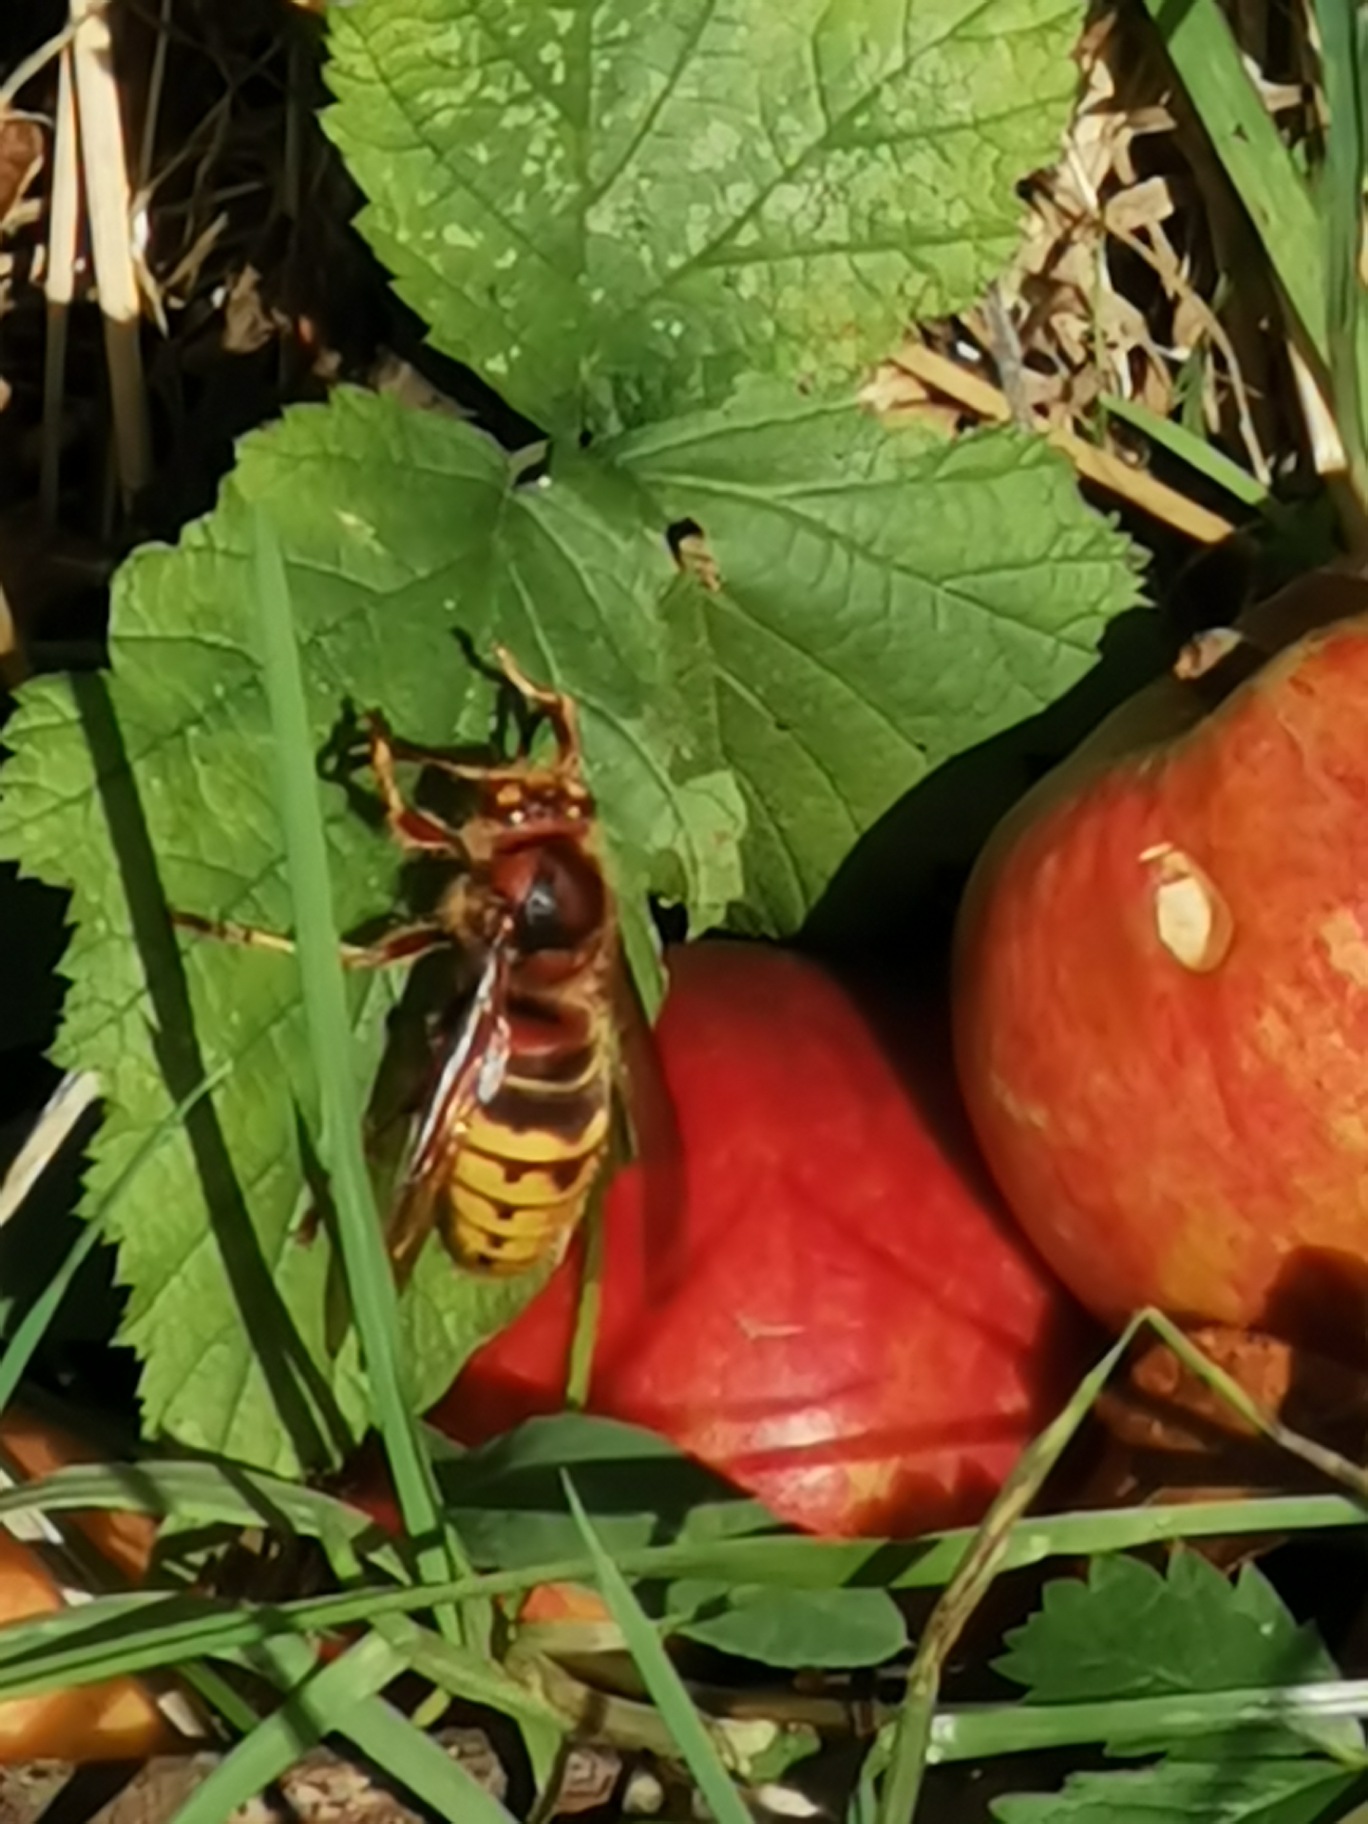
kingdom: Animalia
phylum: Arthropoda
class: Insecta
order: Hymenoptera
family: Vespidae
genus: Vespa
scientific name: Vespa crabro
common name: Stor gedehams
